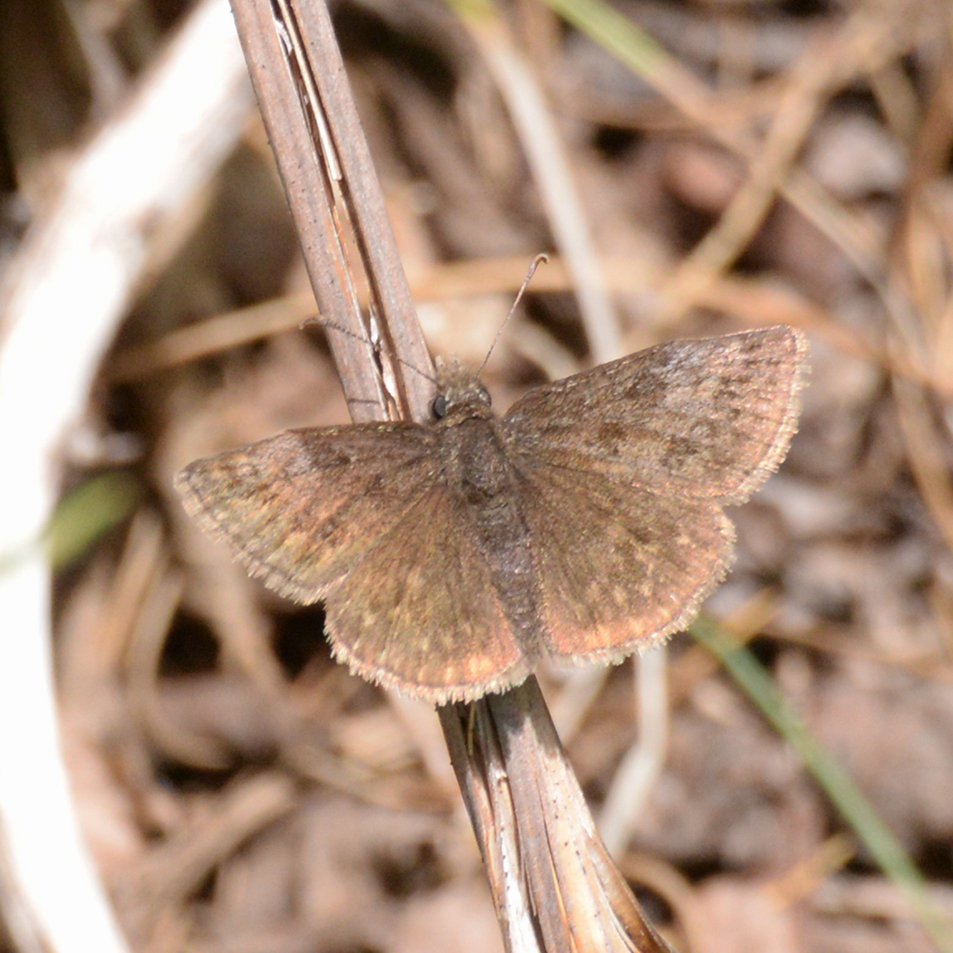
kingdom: Animalia
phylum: Arthropoda
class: Insecta
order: Lepidoptera
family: Hesperiidae
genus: Erynnis
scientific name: Erynnis icelus
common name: Dreamy Duskywing
